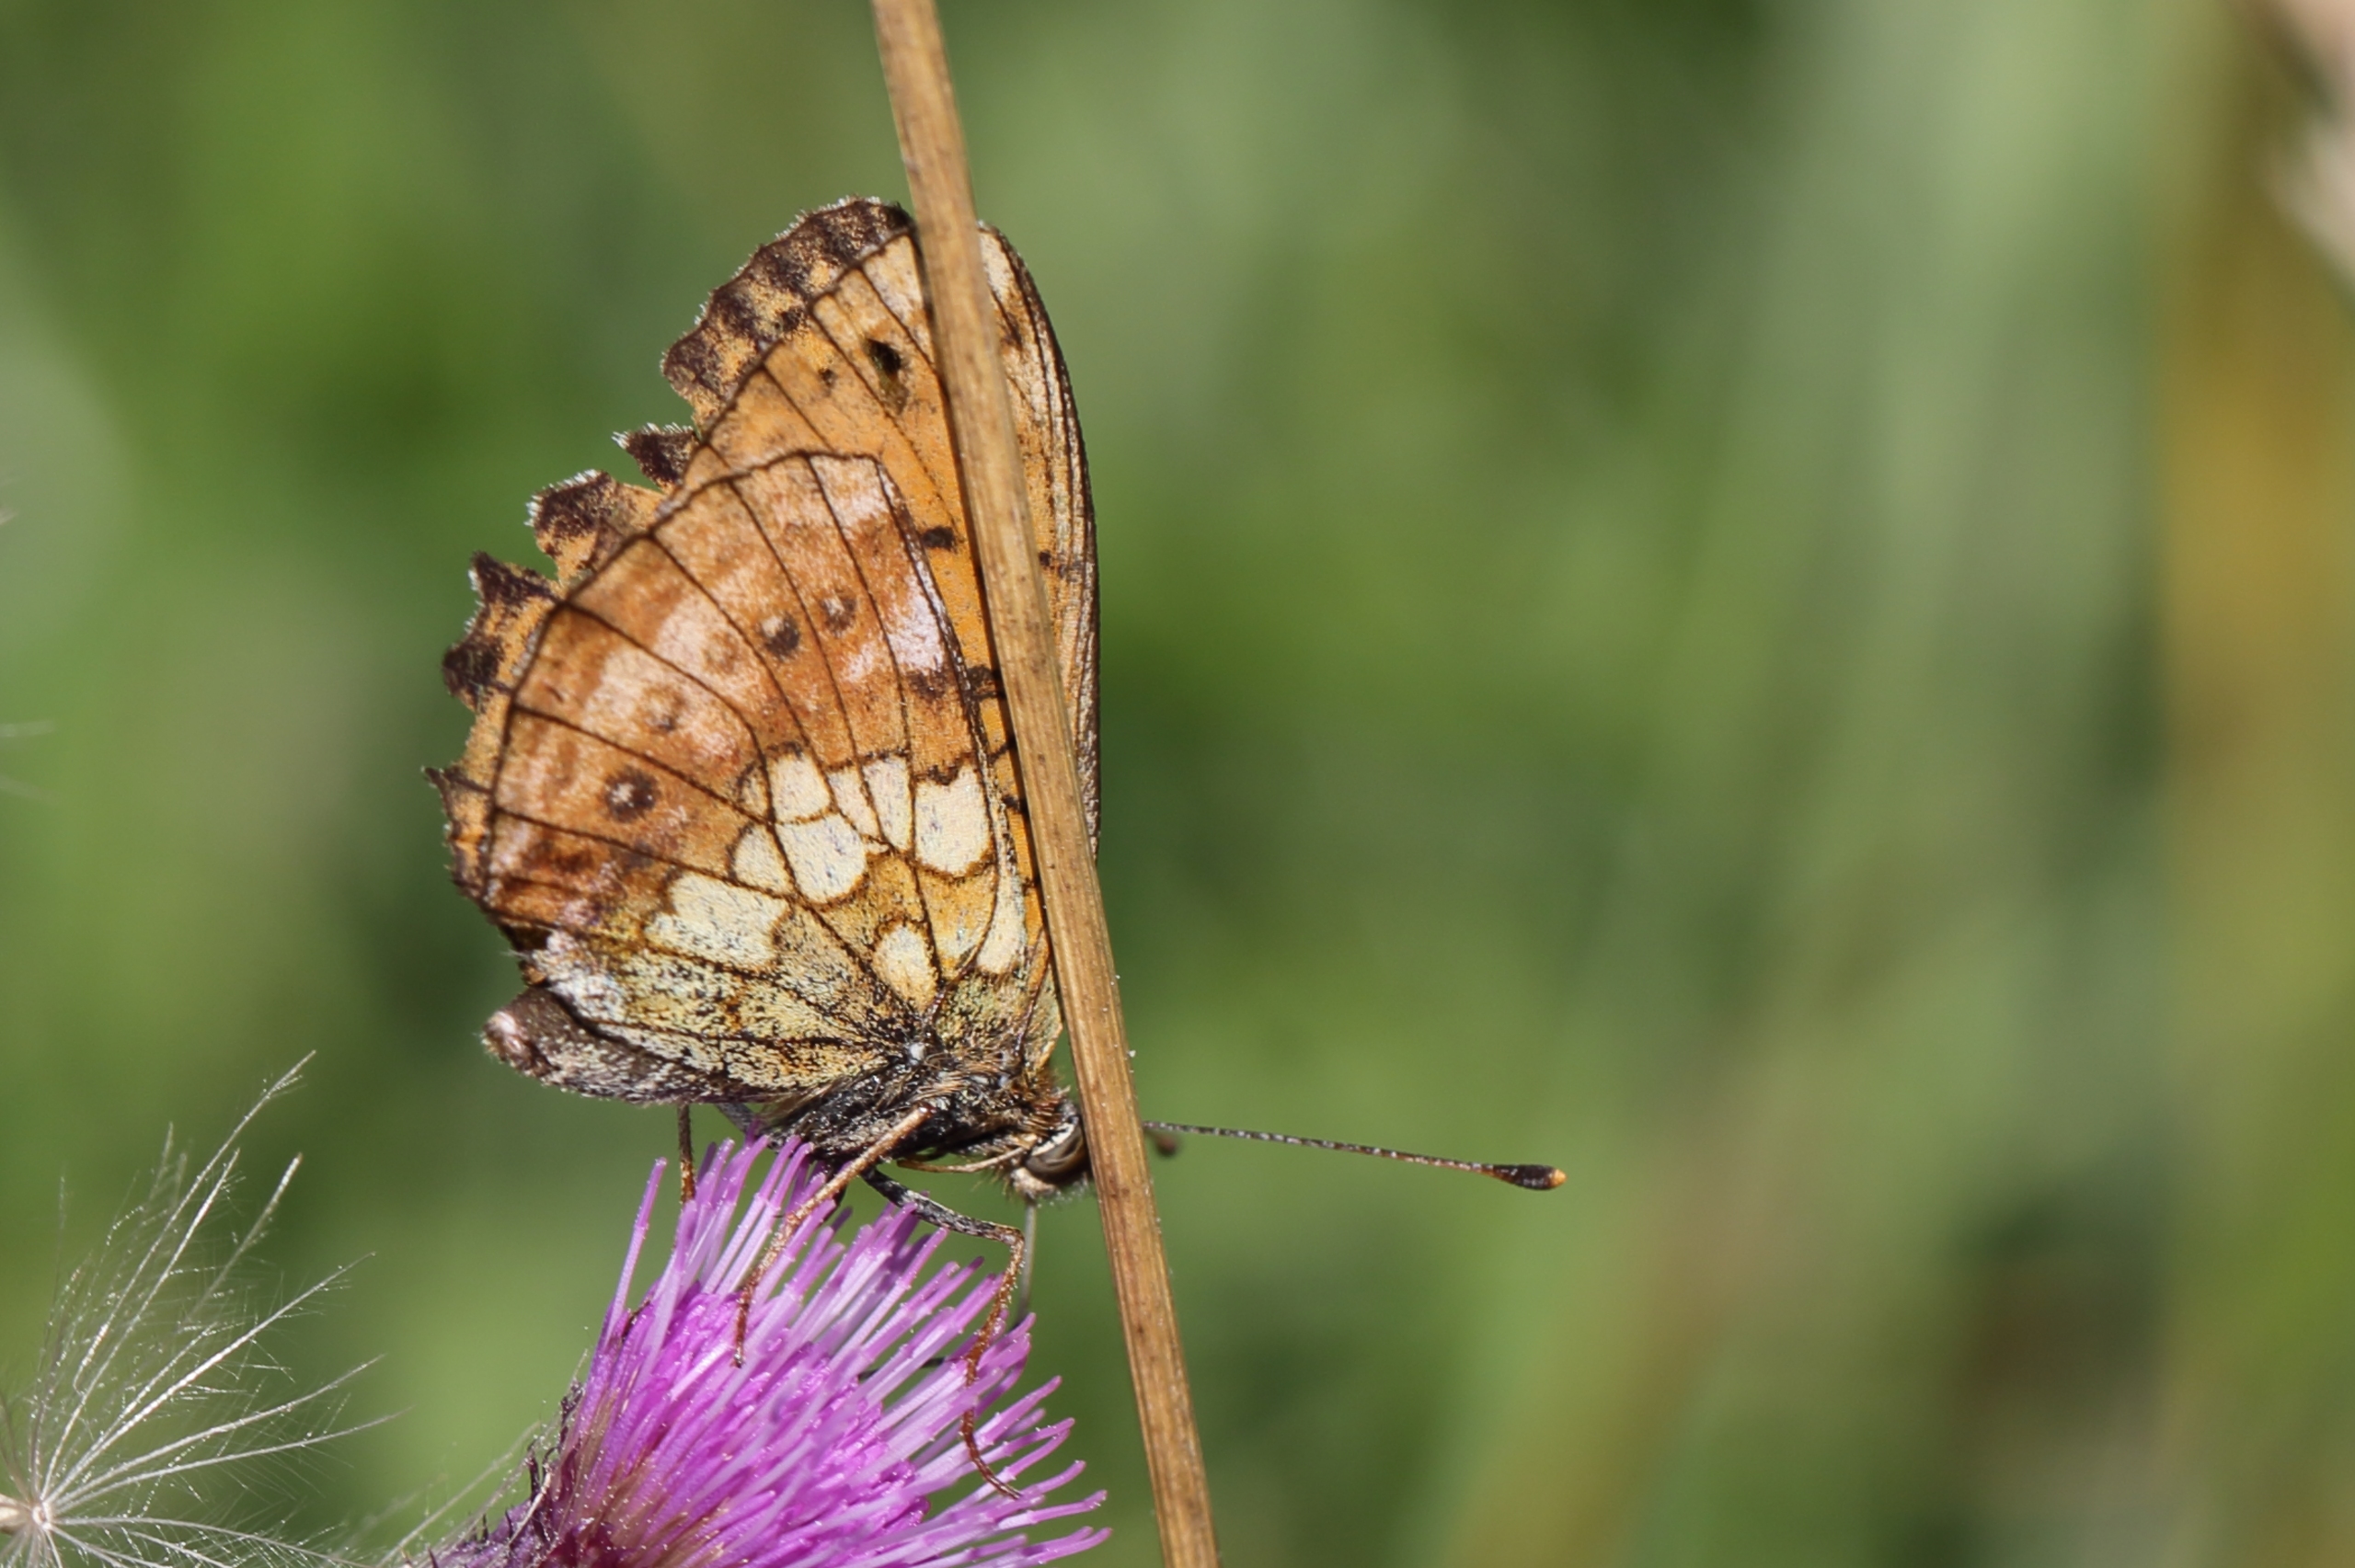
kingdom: Animalia
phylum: Arthropoda
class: Insecta
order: Lepidoptera
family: Nymphalidae
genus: Brenthis
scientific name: Brenthis ino
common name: Engperlemorsommerfugl
